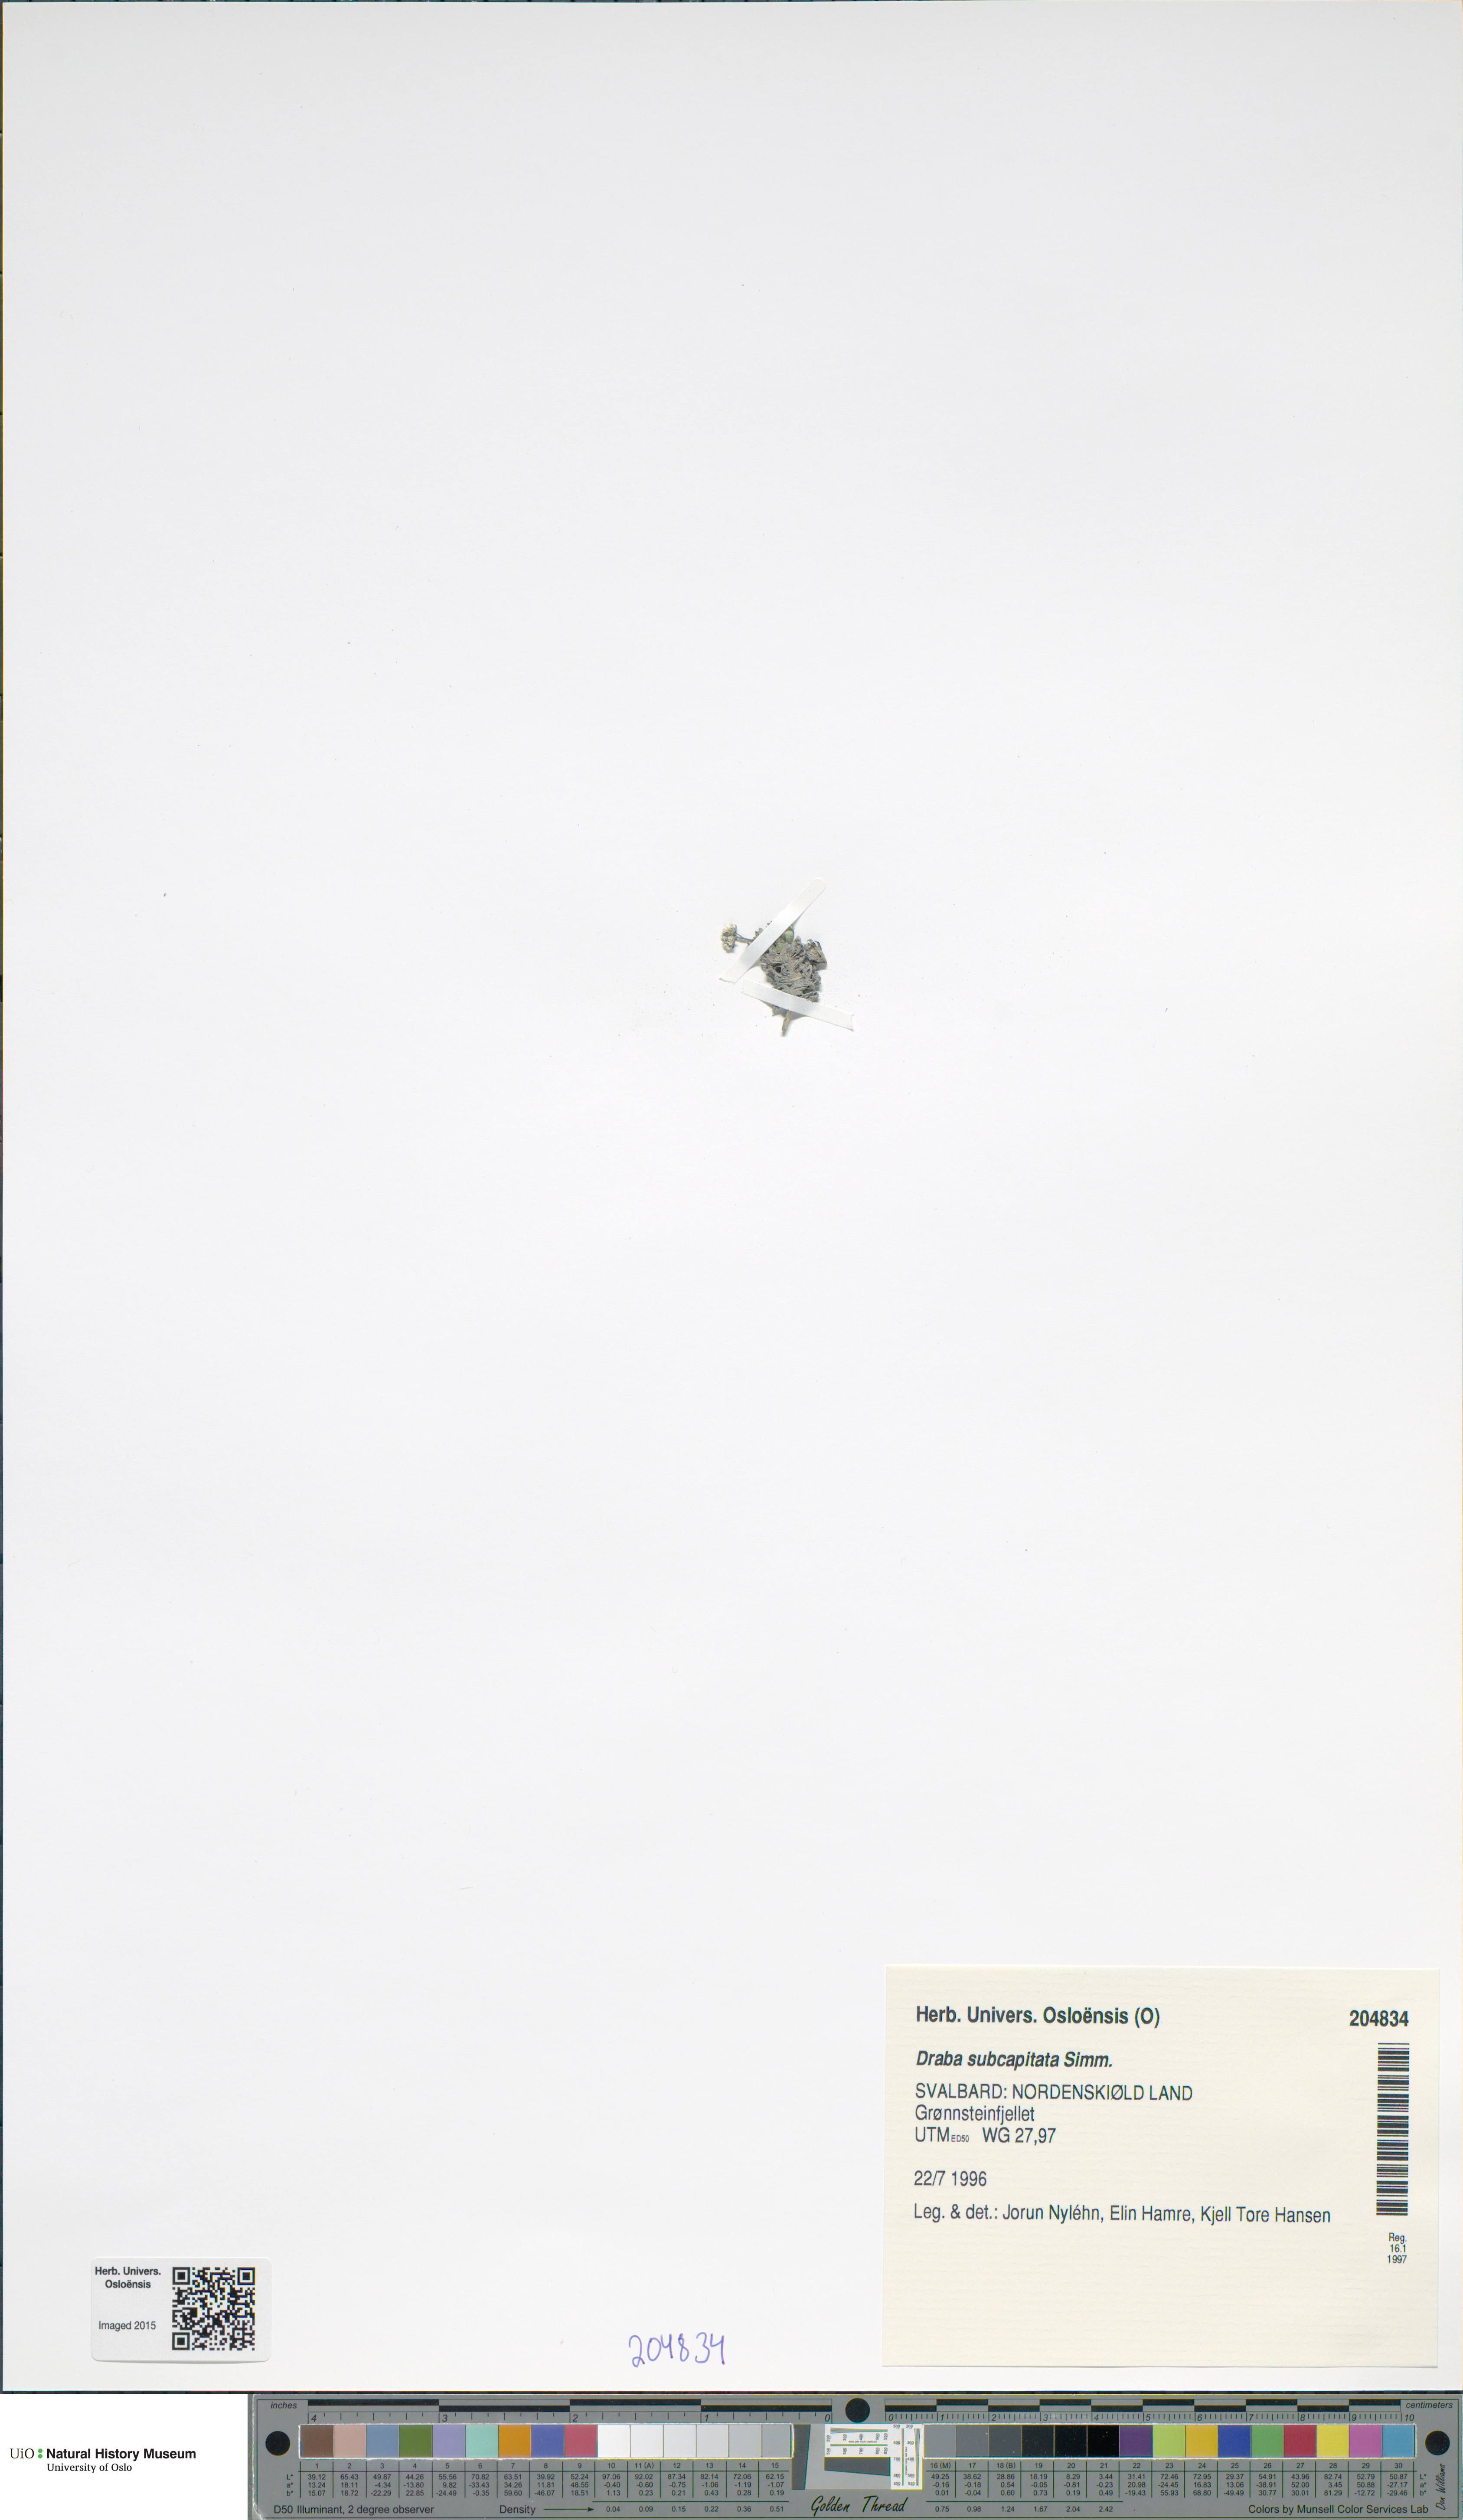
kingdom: Plantae
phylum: Tracheophyta
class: Magnoliopsida
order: Brassicales
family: Brassicaceae
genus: Draba
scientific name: Draba subcapitata
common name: Ellesmere island draba
